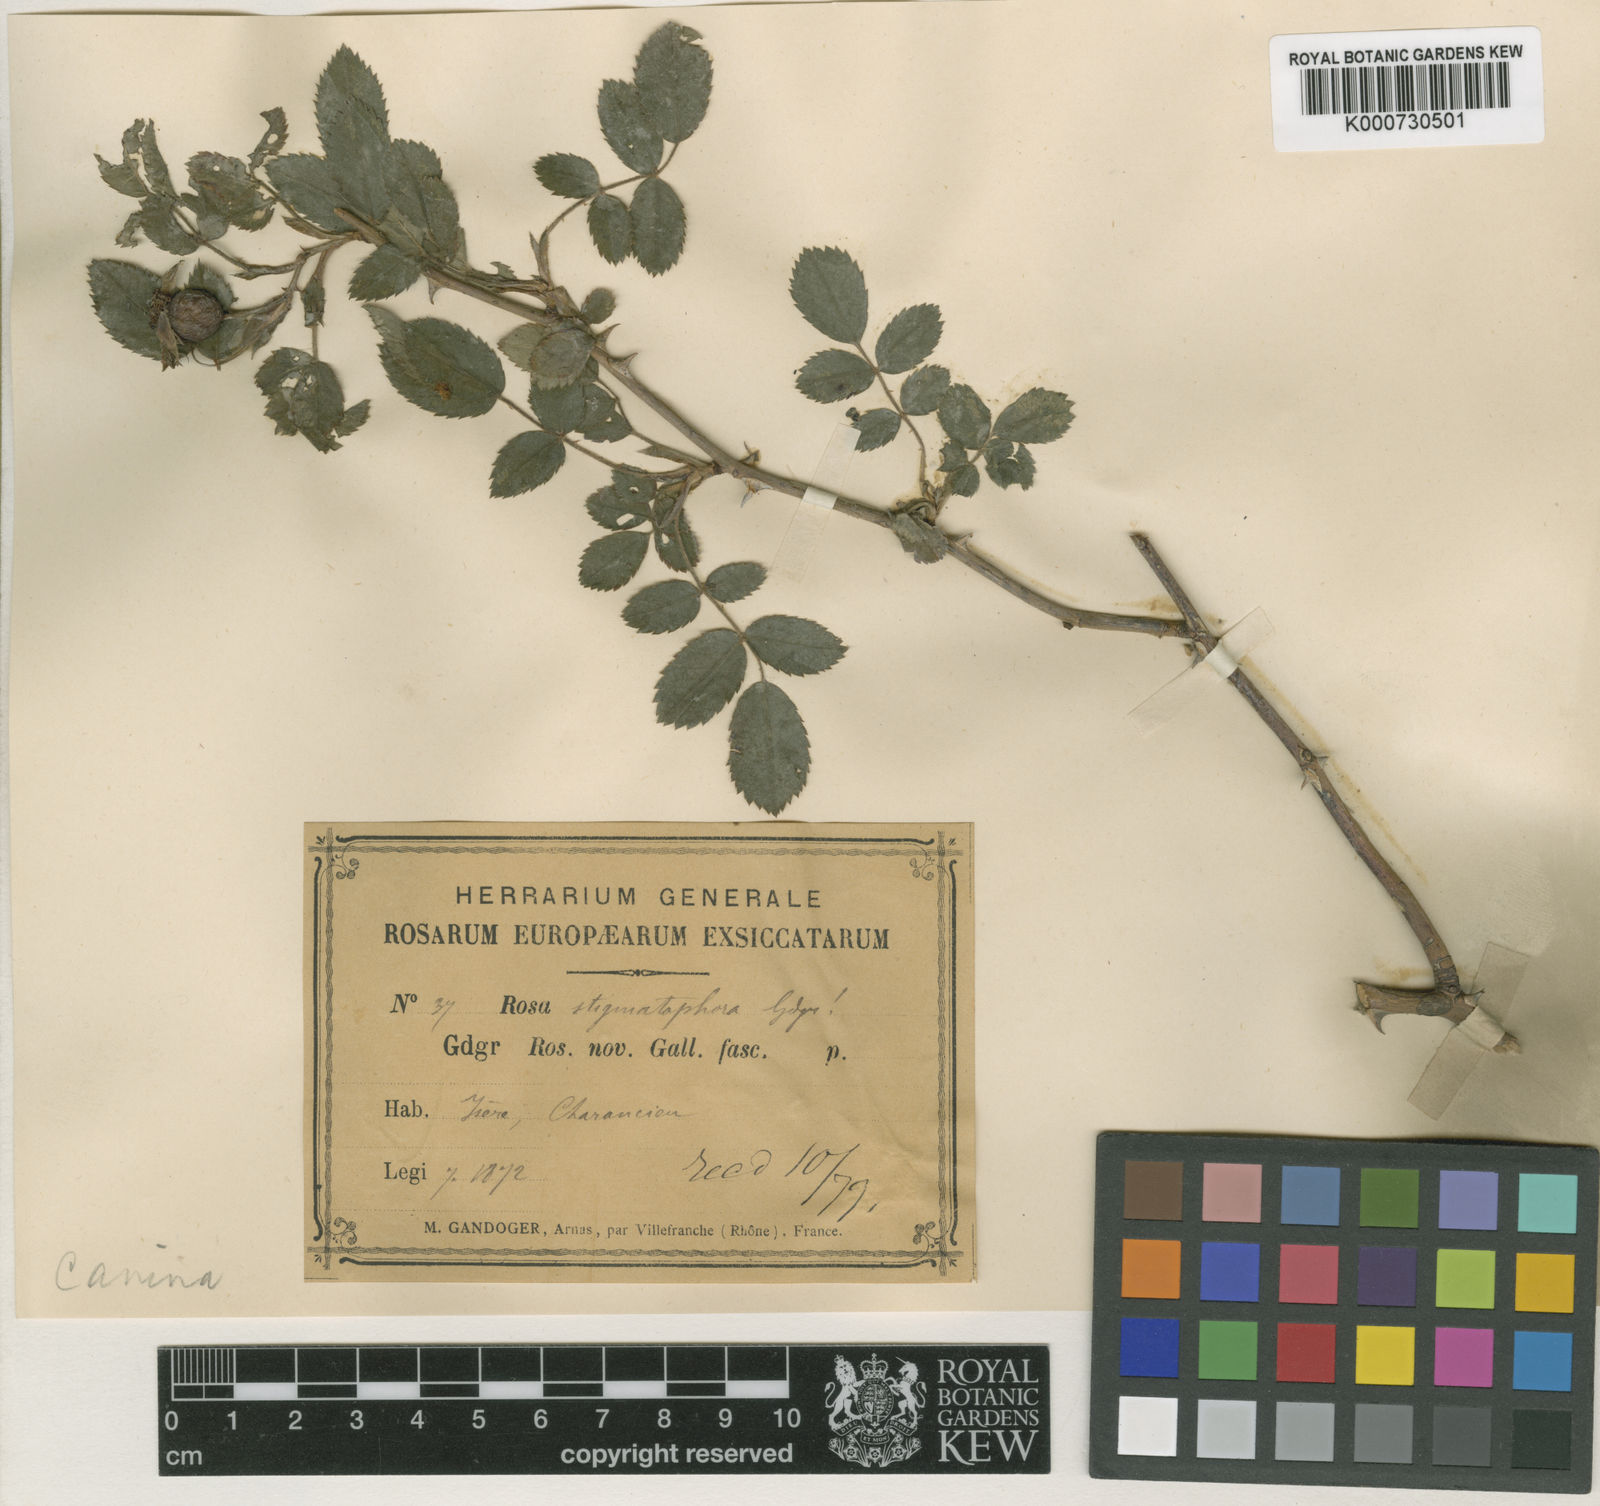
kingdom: Plantae
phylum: Tracheophyta
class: Magnoliopsida
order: Rosales
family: Rosaceae
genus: Rosa
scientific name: Rosa canina
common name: Dog rose
